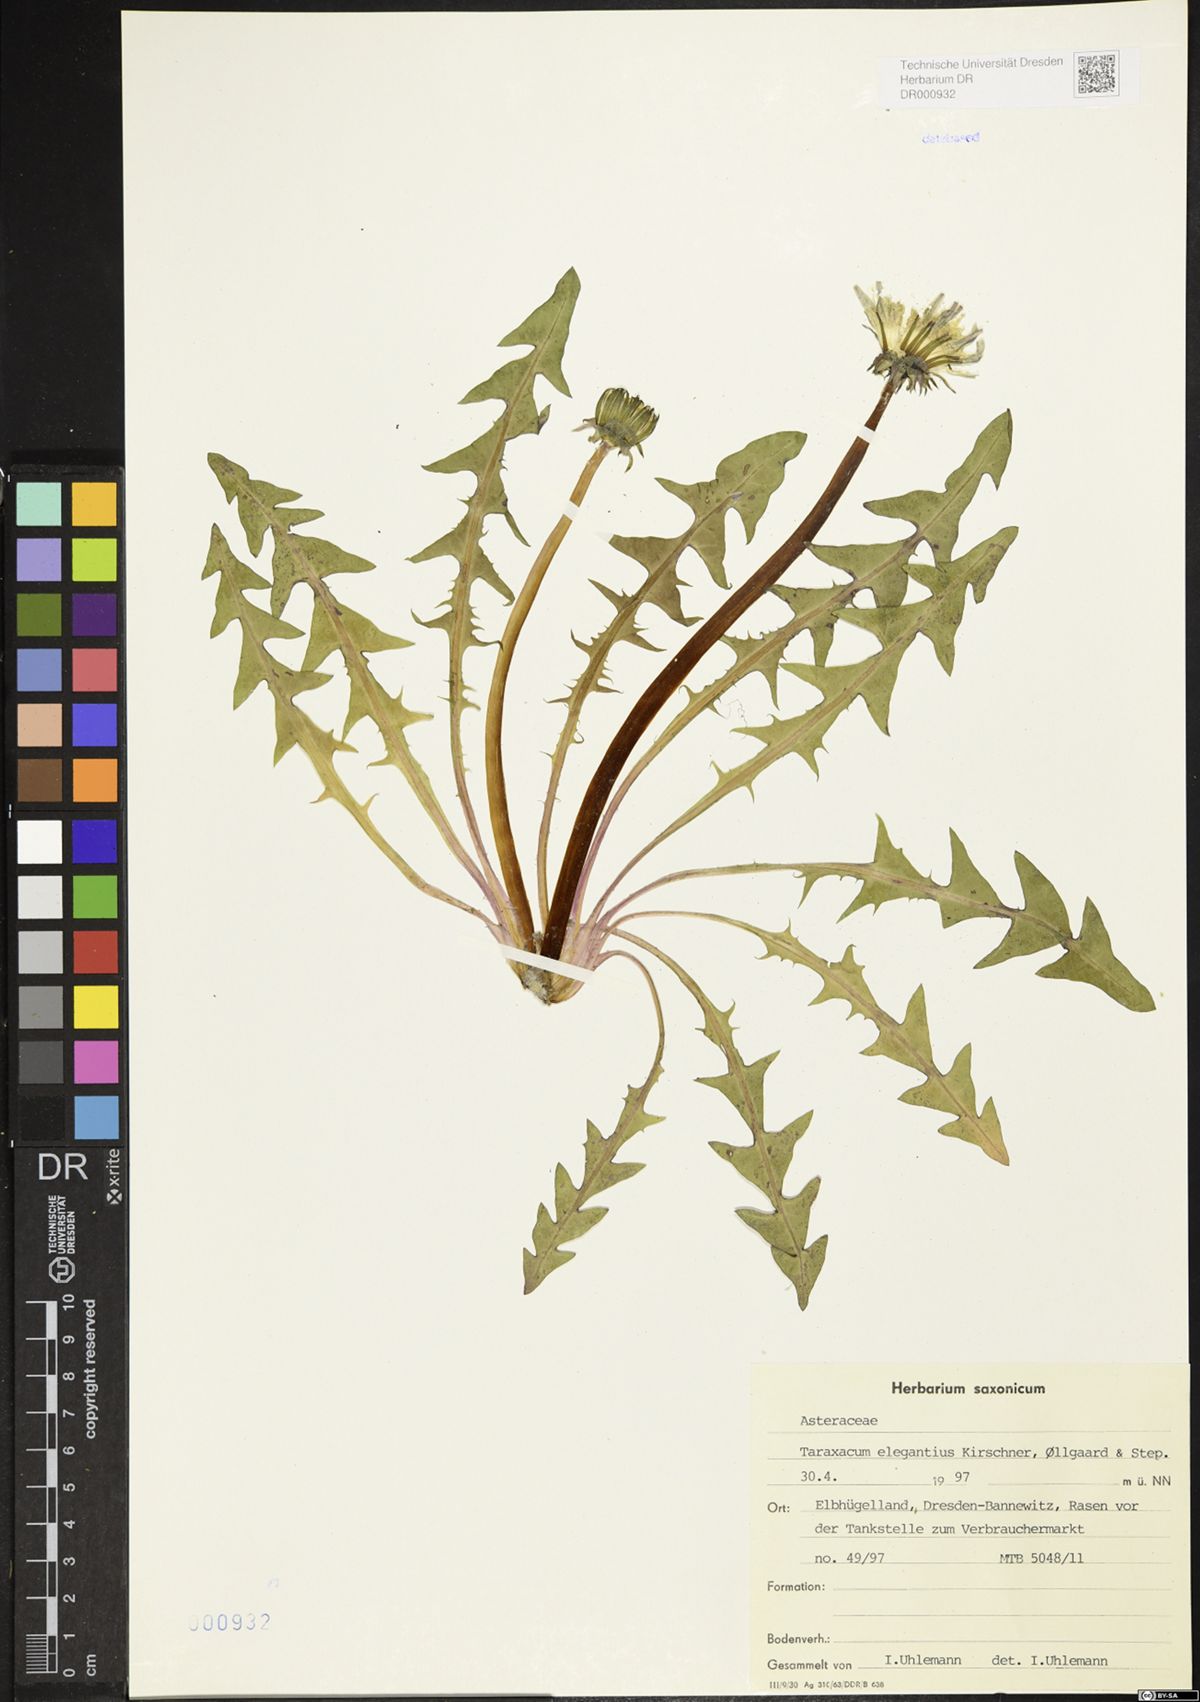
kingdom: Plantae
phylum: Tracheophyta
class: Magnoliopsida
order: Asterales
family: Asteraceae
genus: Taraxacum
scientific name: Taraxacum elegantius
